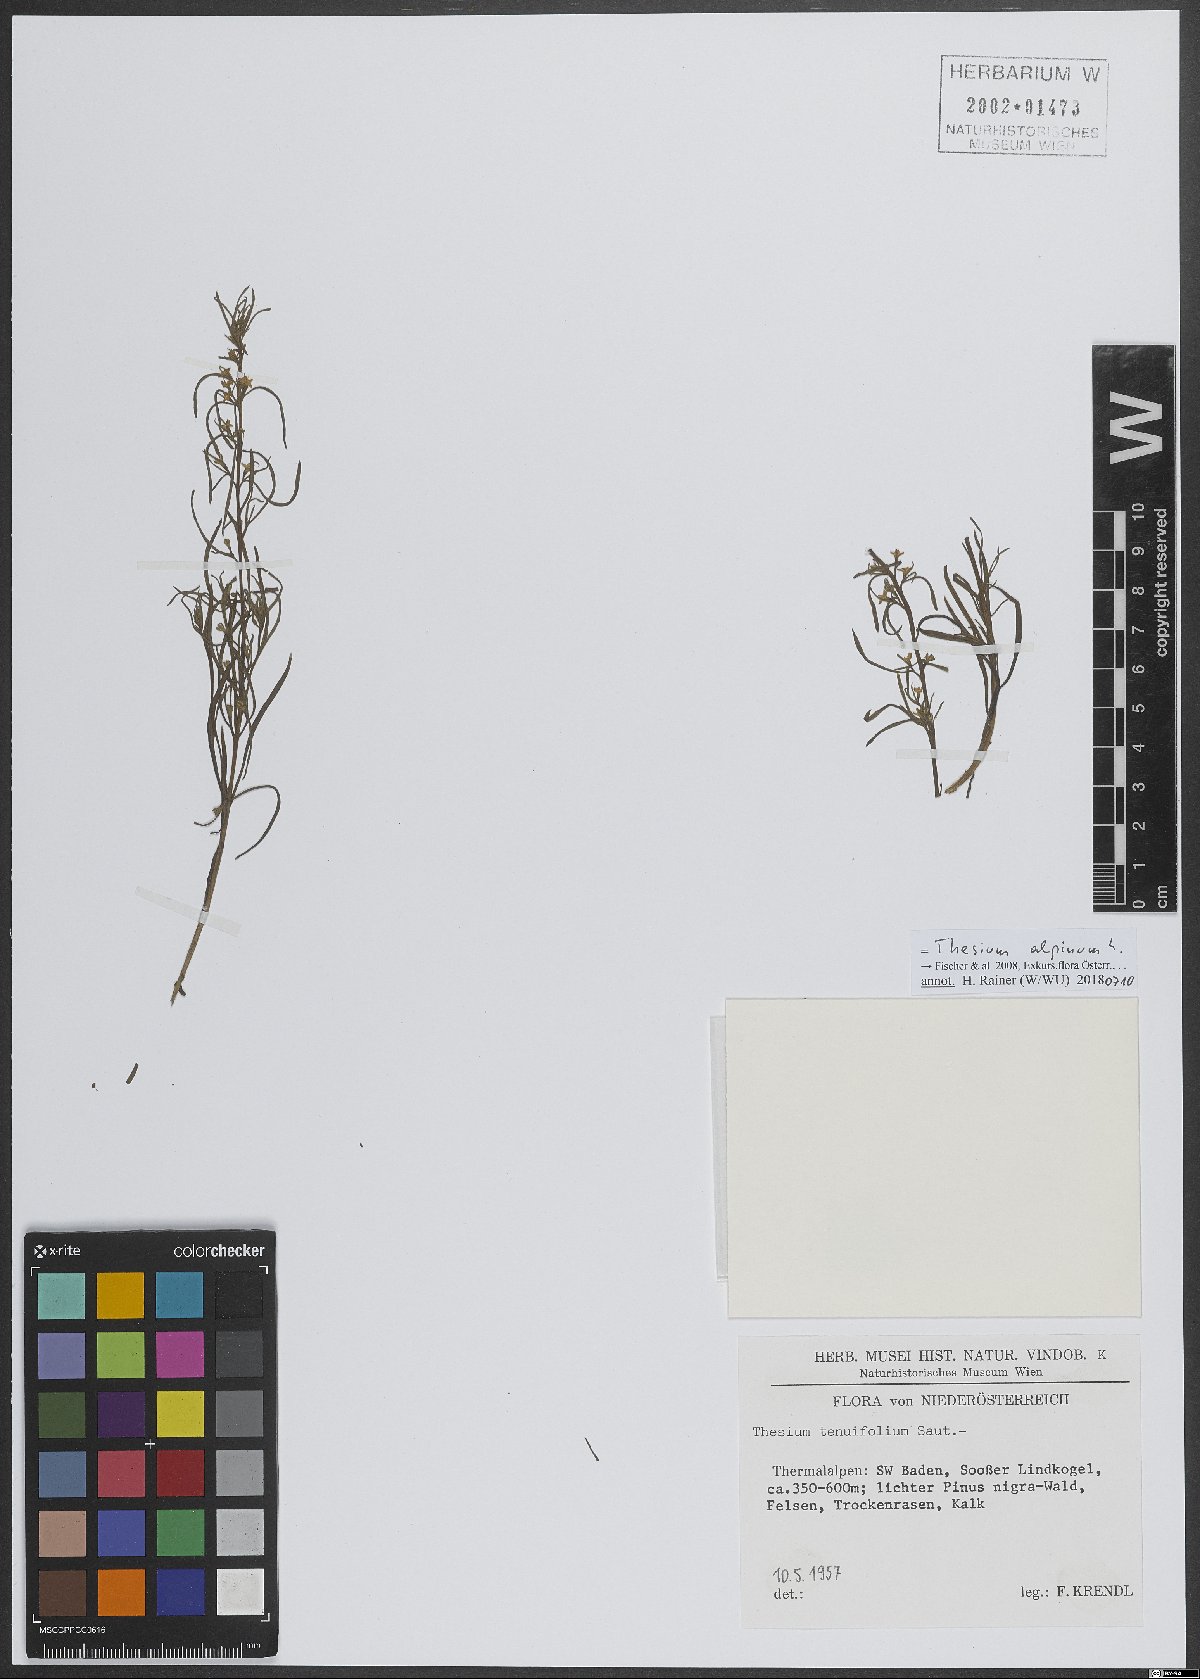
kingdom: Plantae
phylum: Tracheophyta
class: Magnoliopsida
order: Santalales
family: Thesiaceae
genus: Thesium
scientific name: Thesium alpinum
